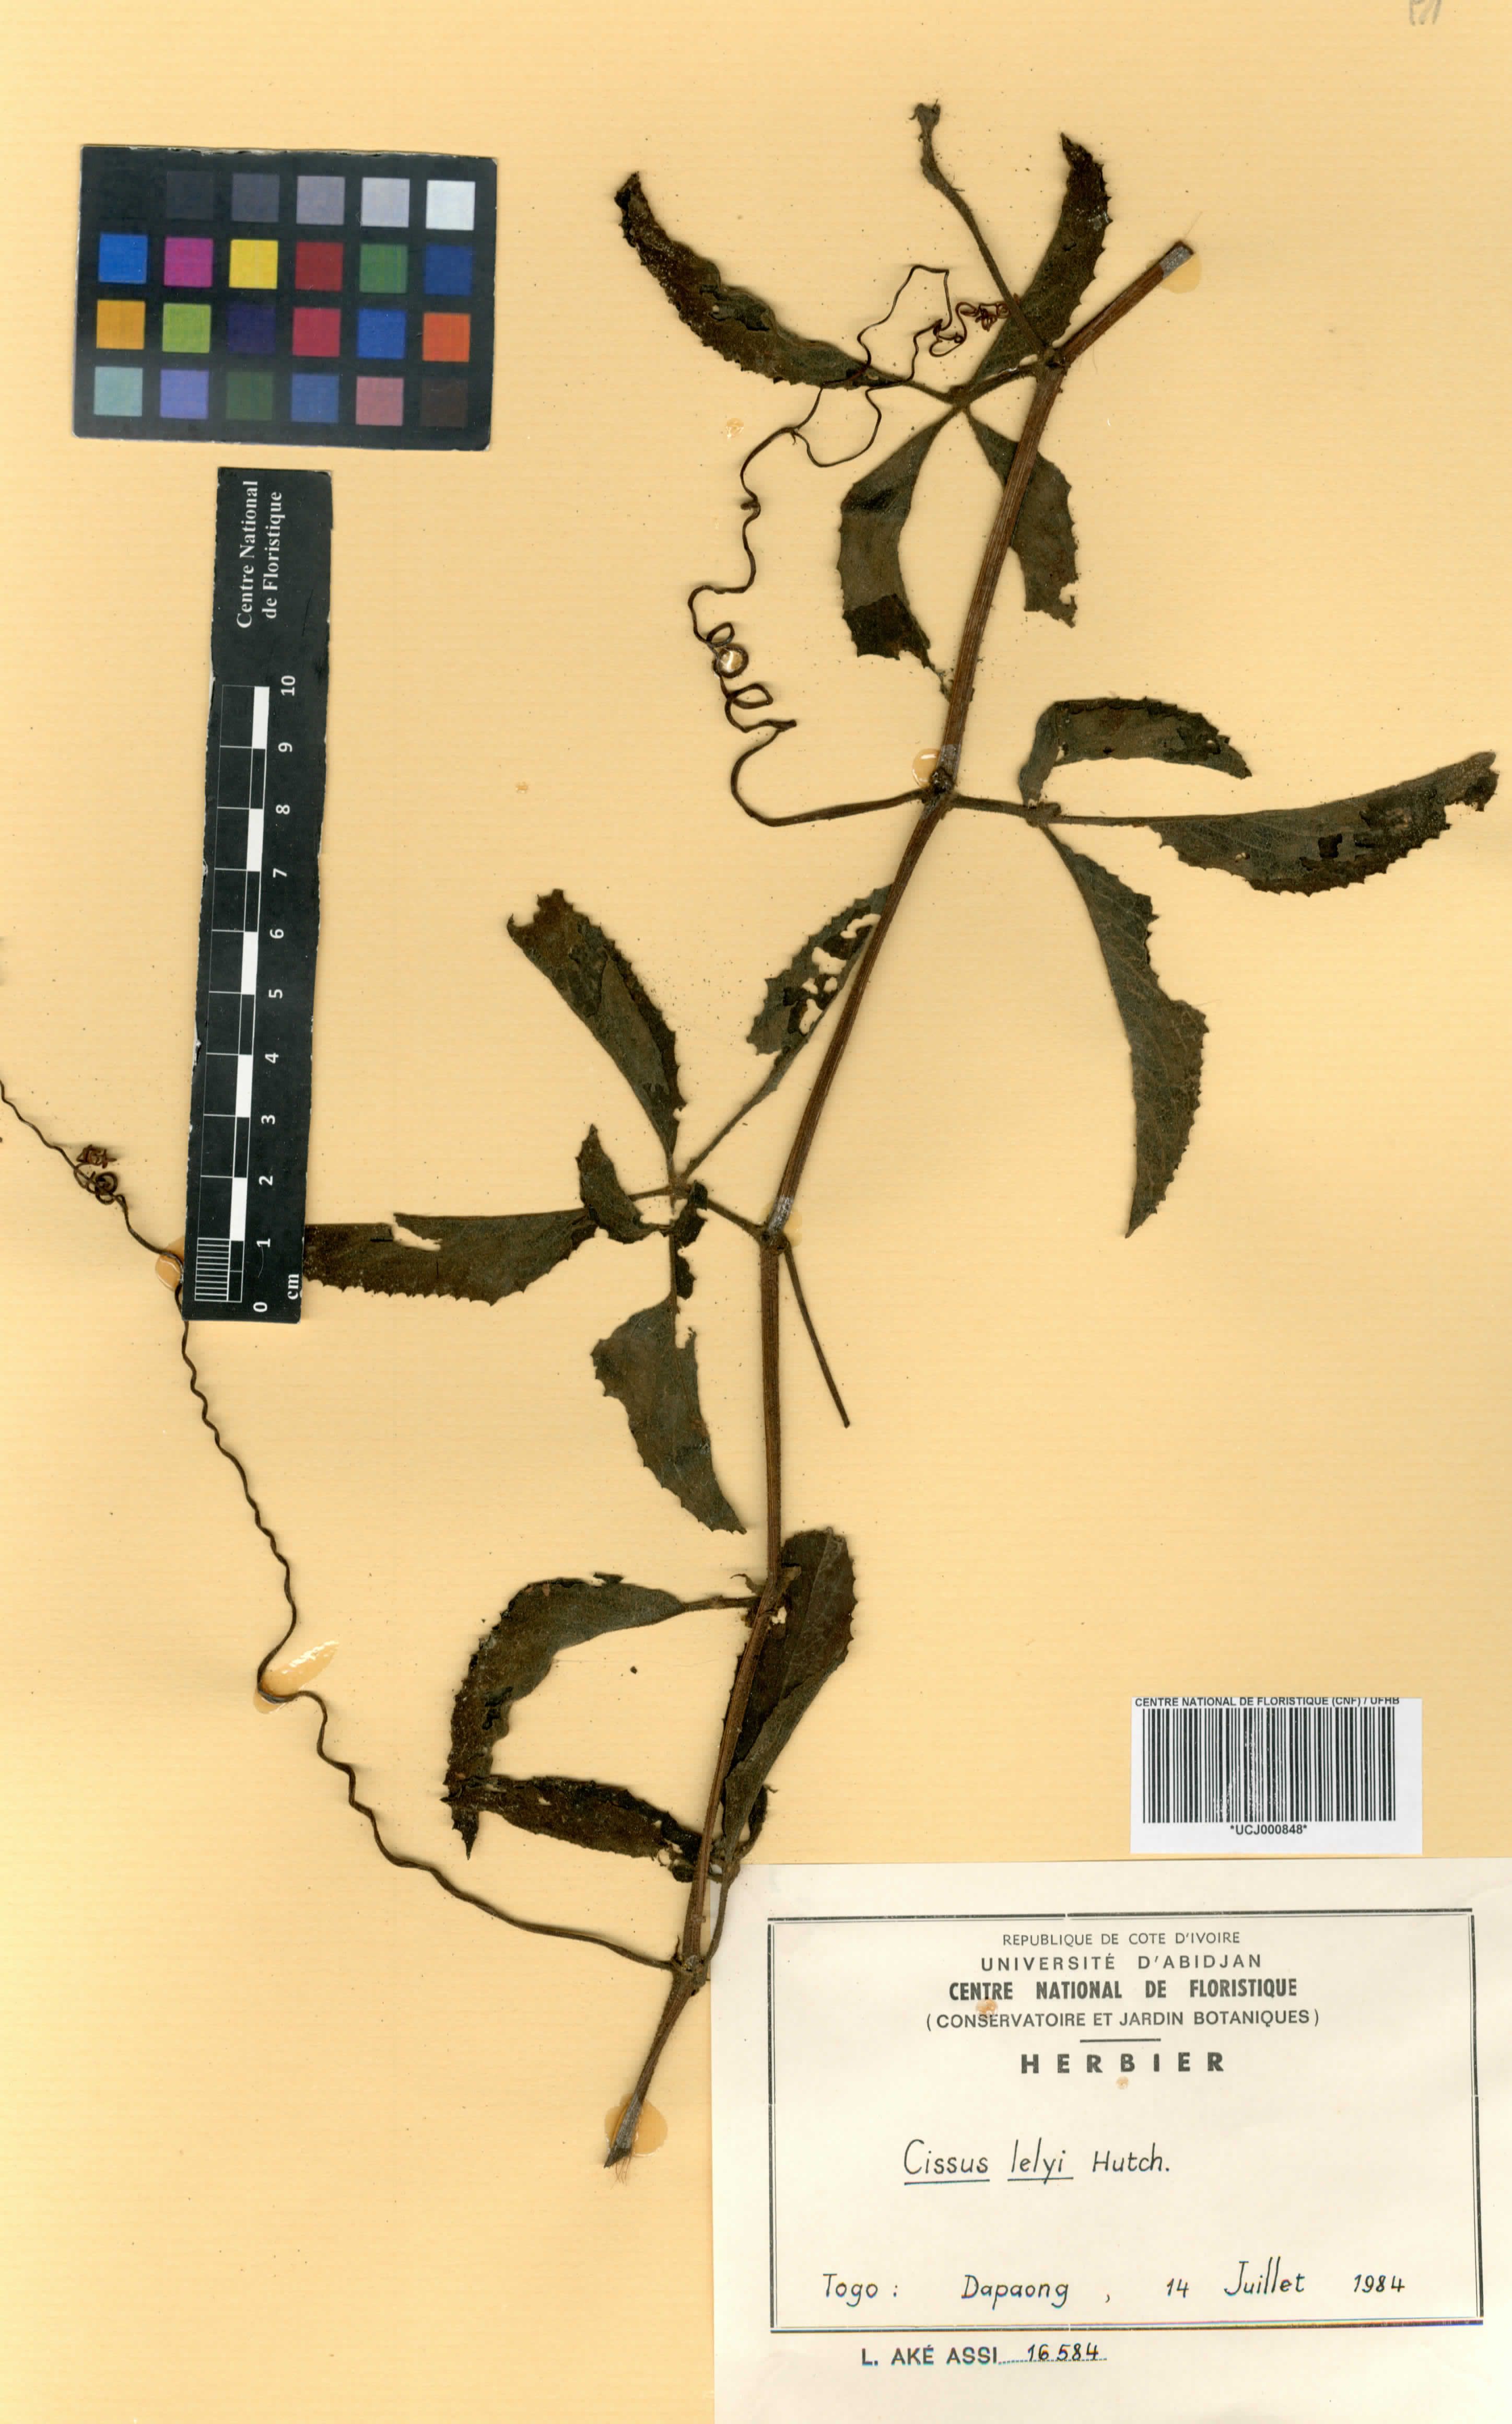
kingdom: Plantae
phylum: Tracheophyta
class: Magnoliopsida
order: Vitales
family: Vitaceae
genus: Cyphostemma
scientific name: Cyphostemma serpens
